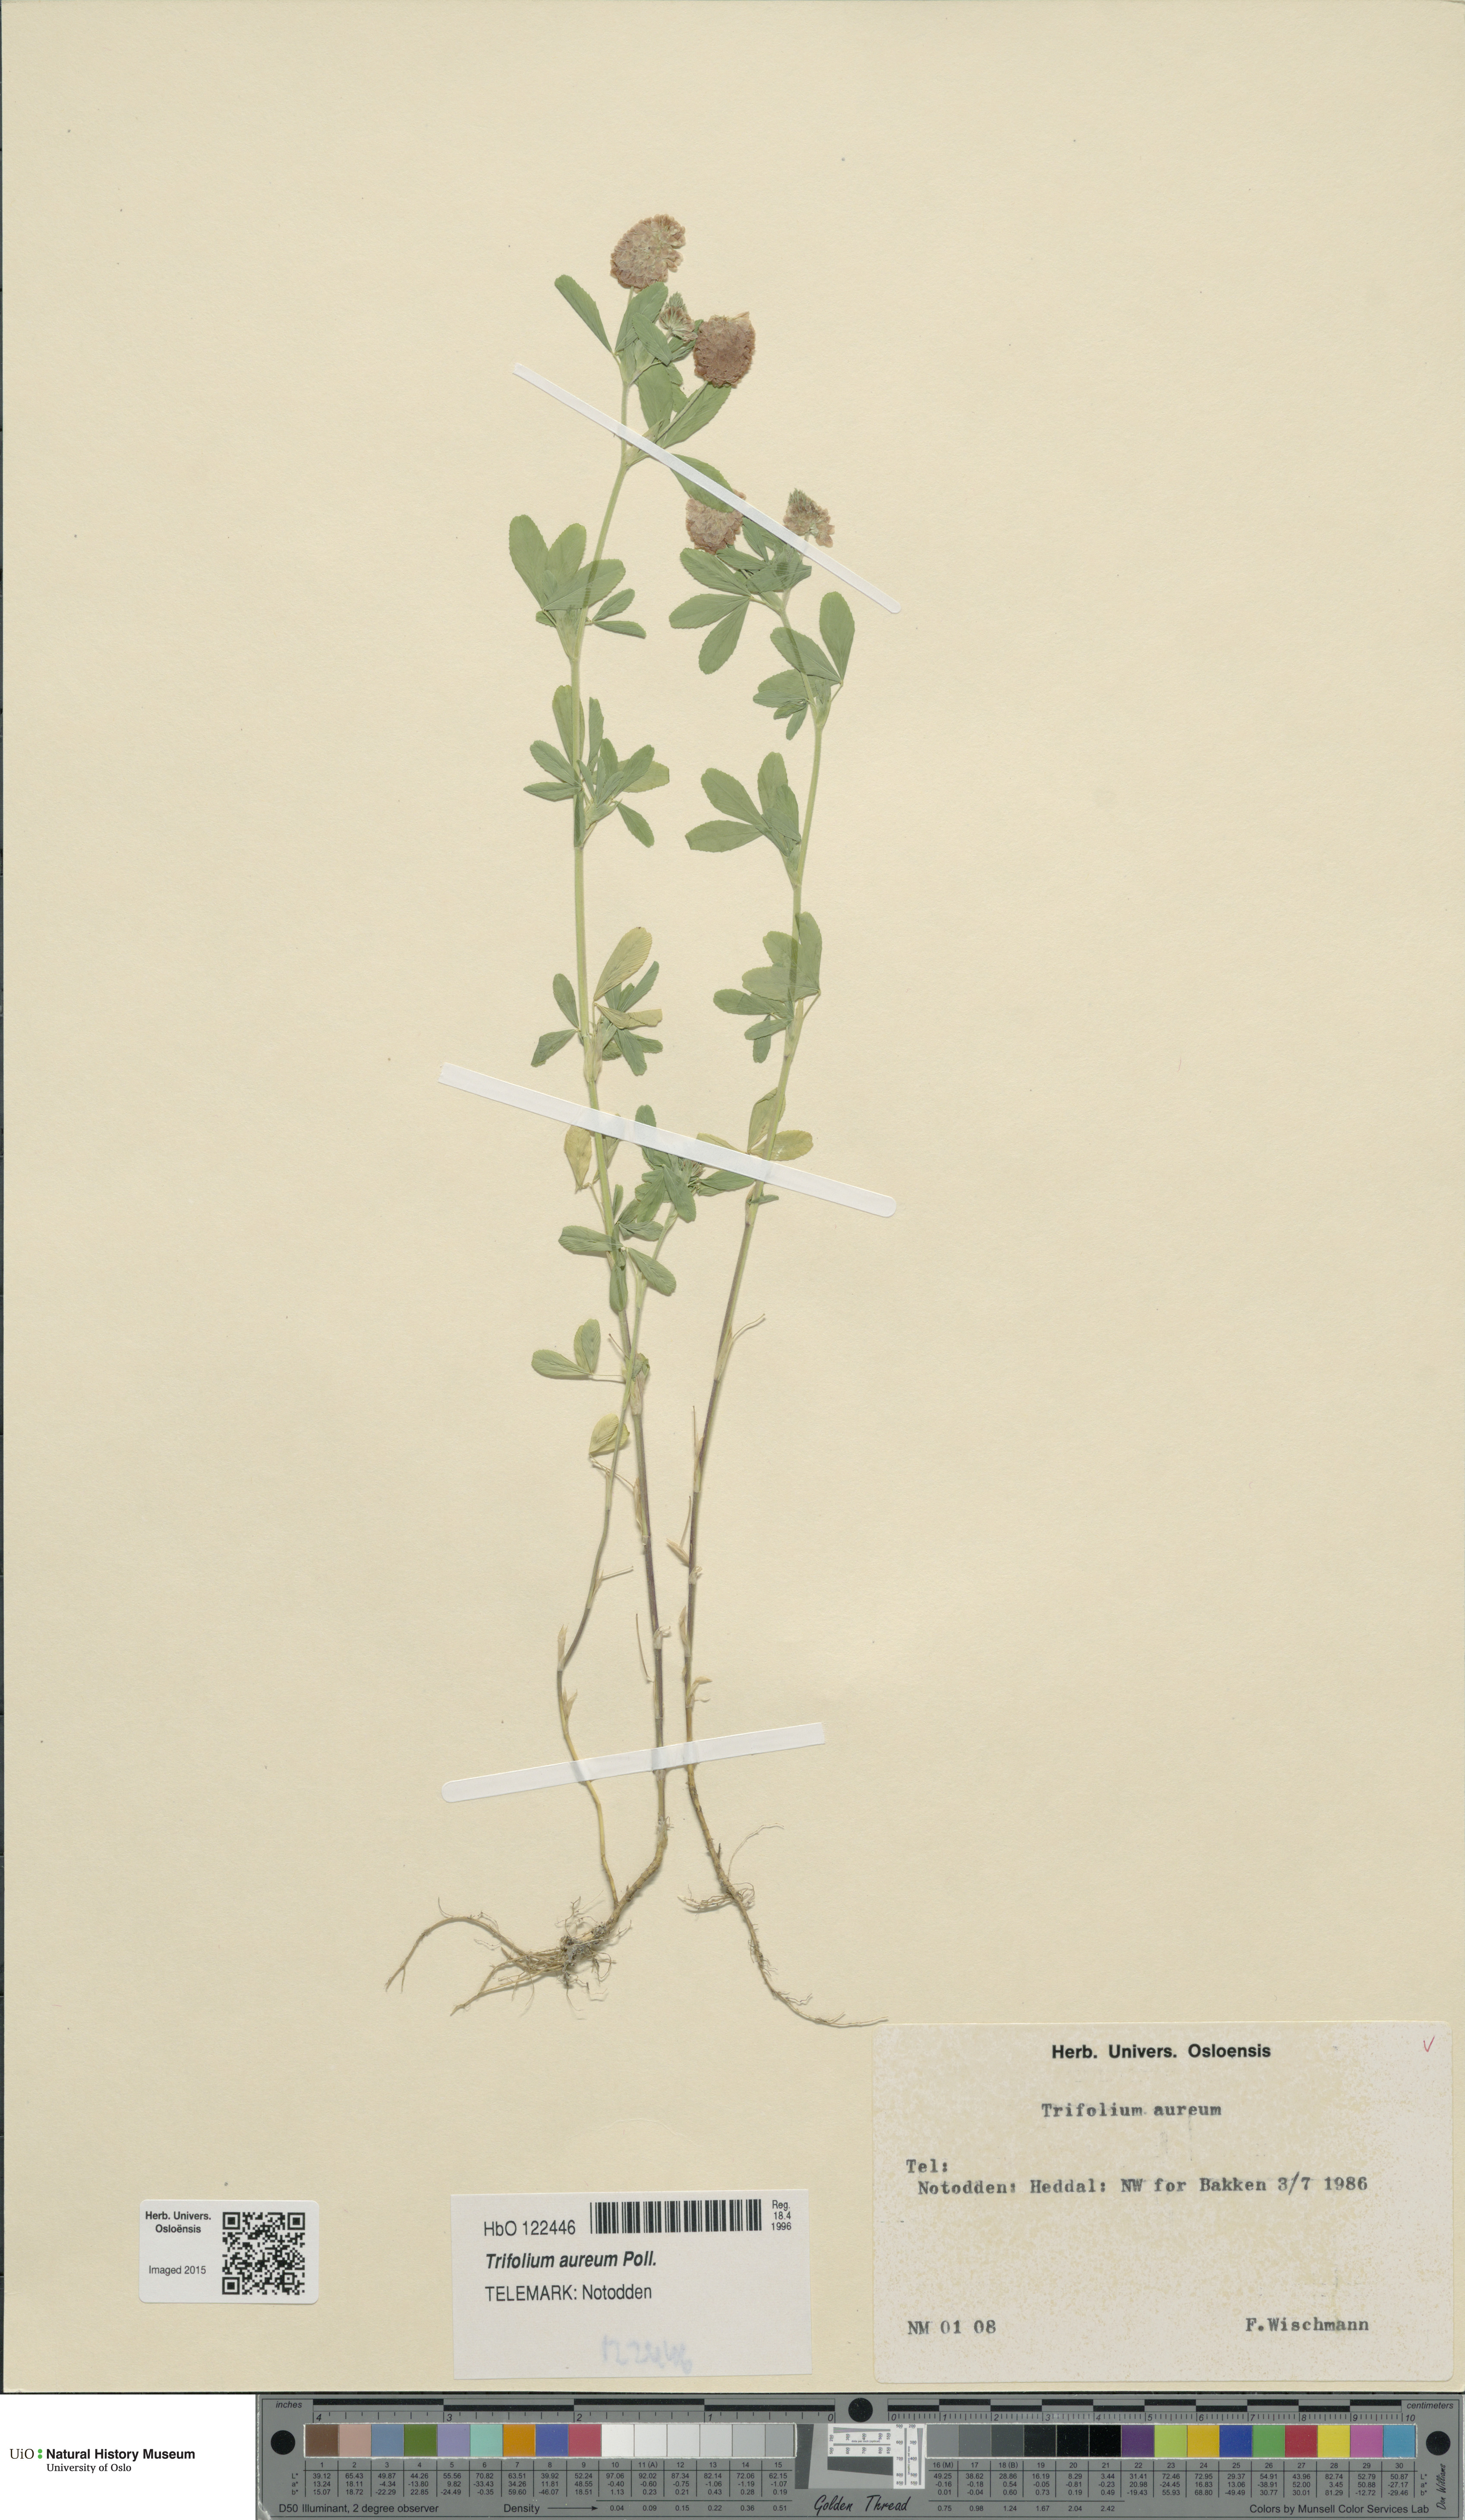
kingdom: Plantae
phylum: Tracheophyta
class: Magnoliopsida
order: Fabales
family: Fabaceae
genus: Trifolium
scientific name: Trifolium aureum
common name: Golden clover
